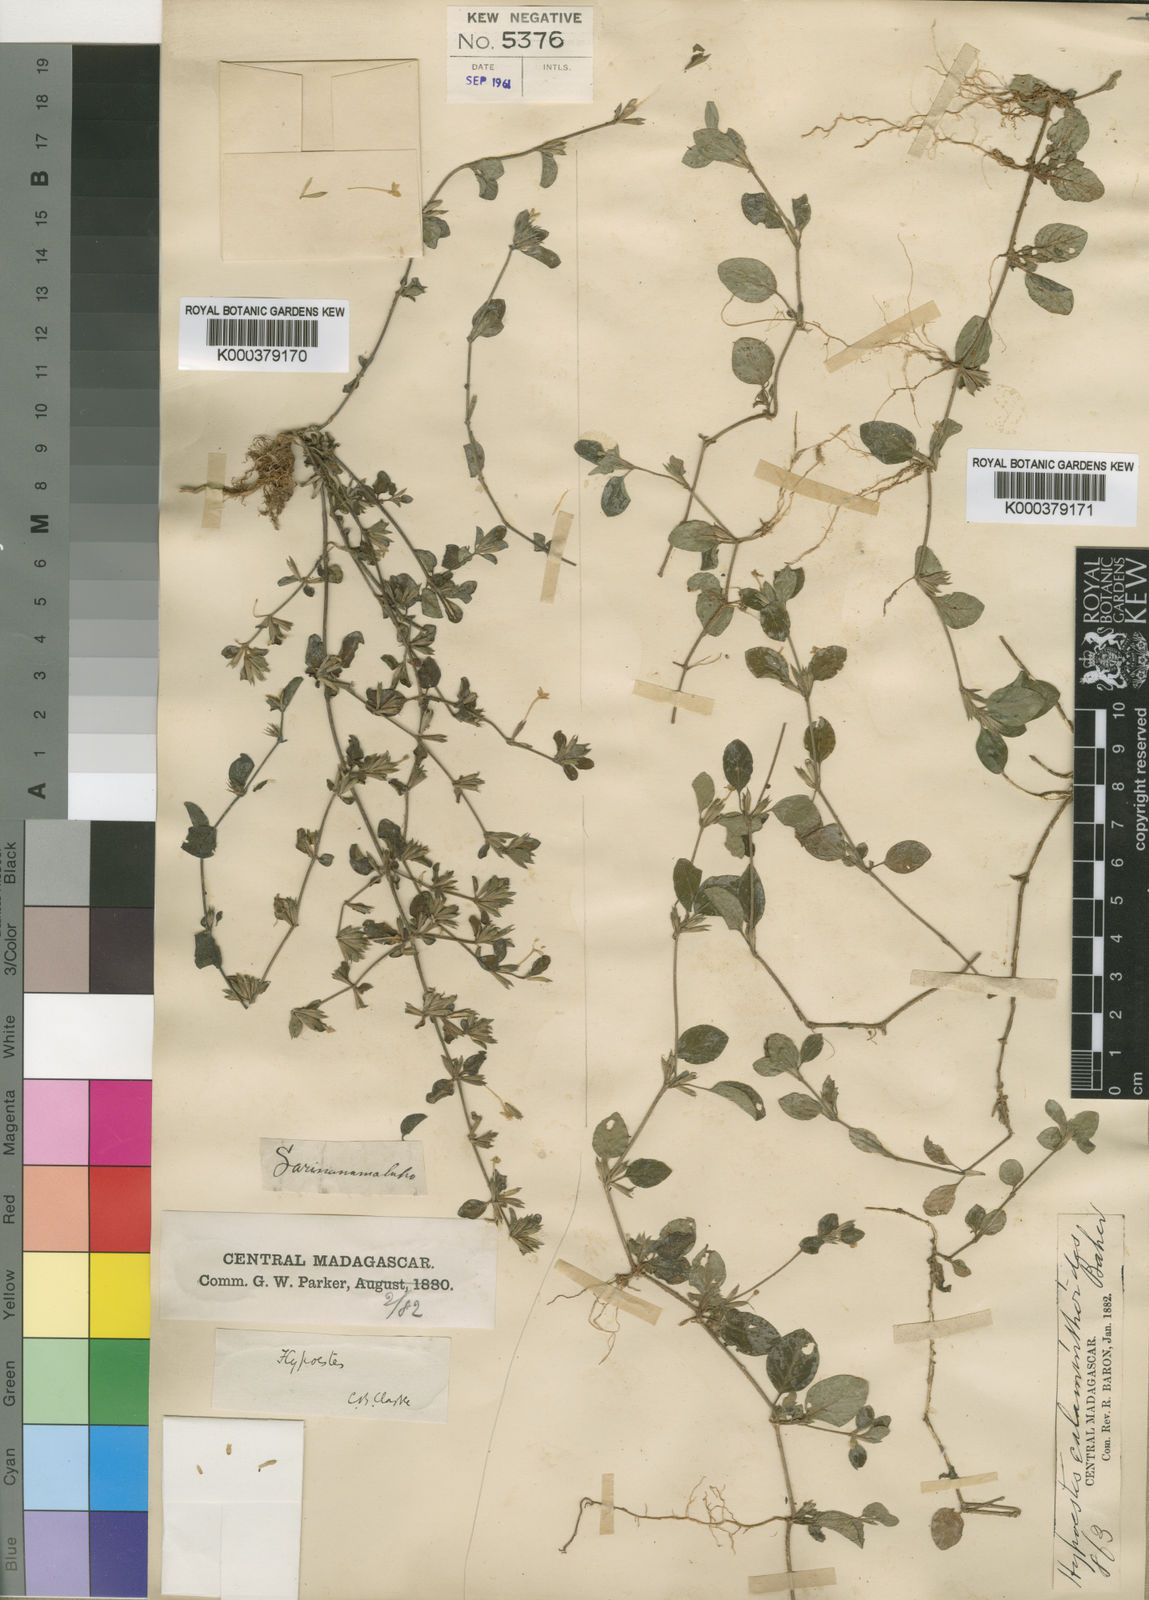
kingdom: Plantae
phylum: Tracheophyta
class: Magnoliopsida
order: Lamiales
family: Acanthaceae
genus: Hypoestes
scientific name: Hypoestes serpens
